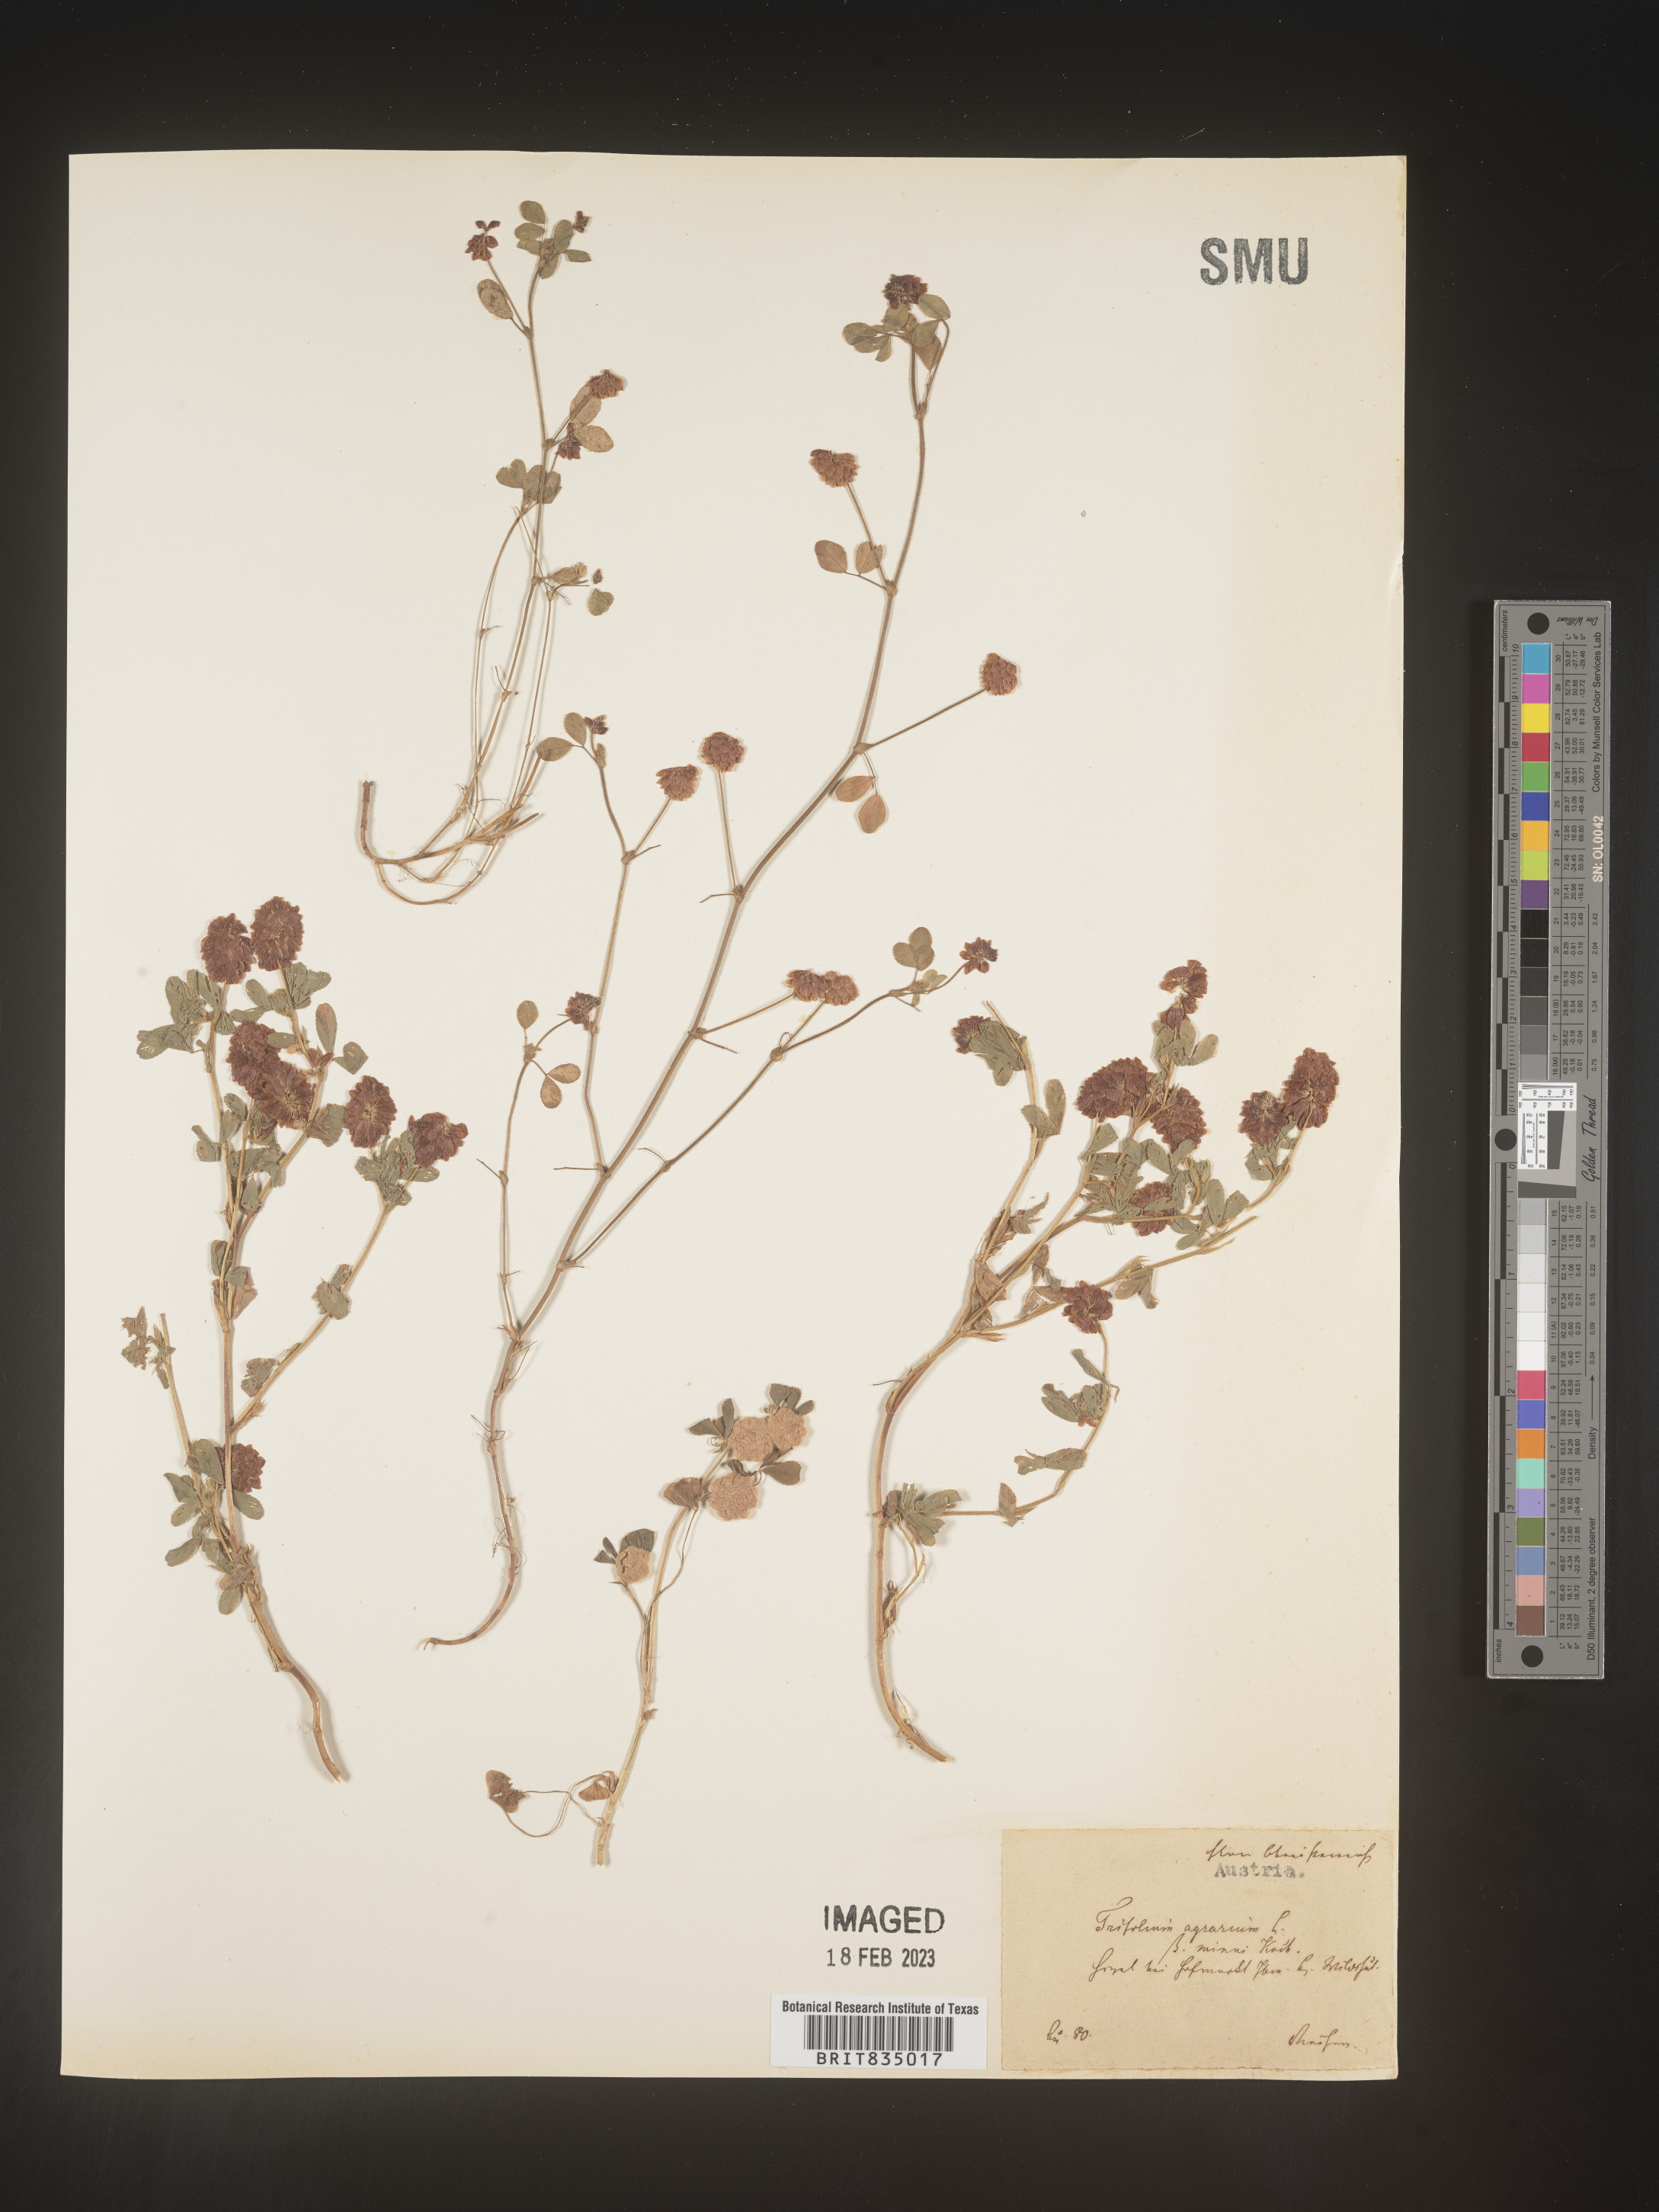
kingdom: Plantae
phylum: Tracheophyta
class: Magnoliopsida
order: Fabales
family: Fabaceae
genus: Trifolium
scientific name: Trifolium
